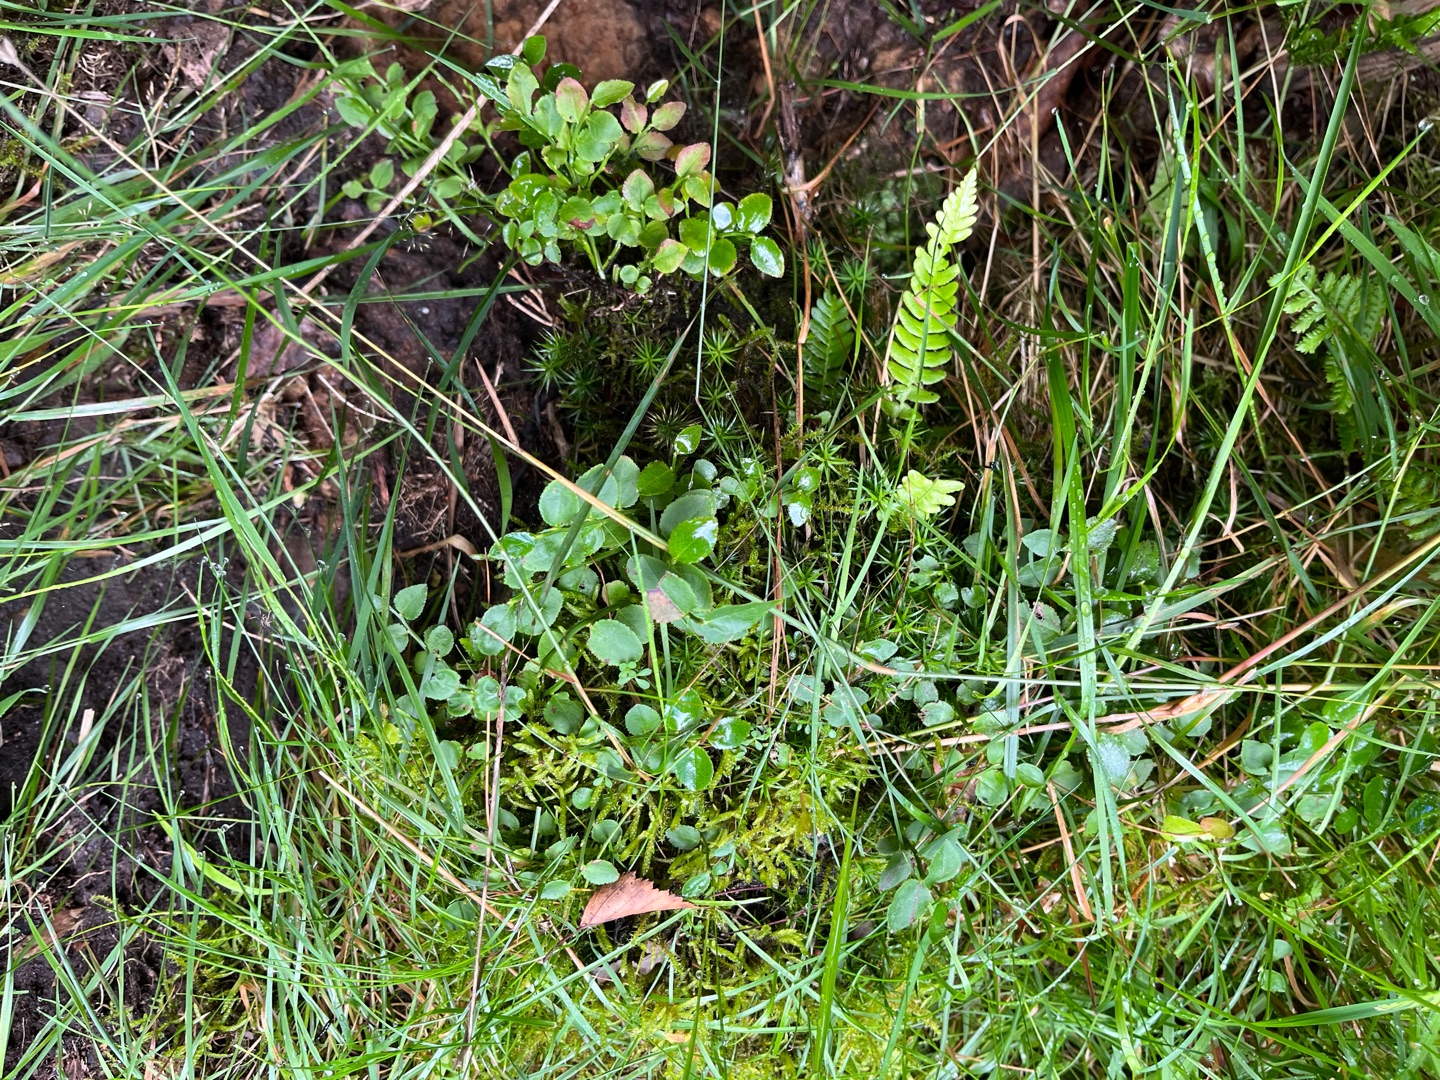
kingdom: Plantae
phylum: Tracheophyta
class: Magnoliopsida
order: Ericales
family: Ericaceae
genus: Vaccinium
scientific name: Vaccinium myrtillus
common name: Blåbær
